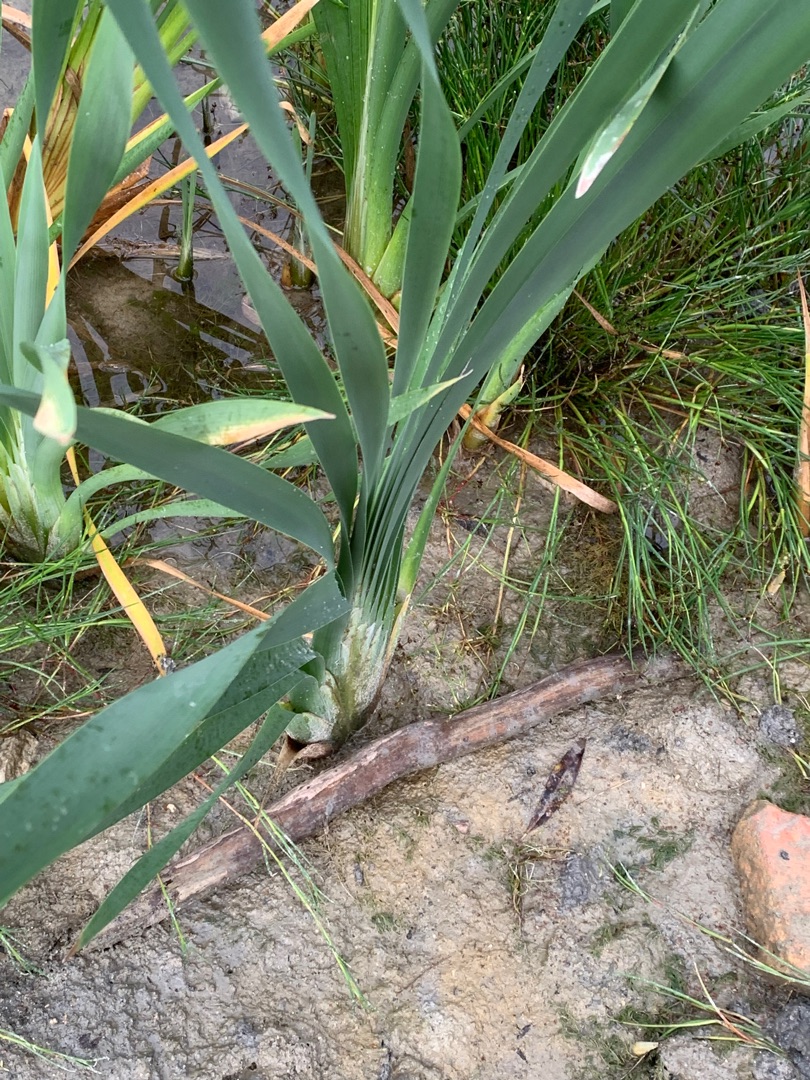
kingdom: Plantae
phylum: Tracheophyta
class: Liliopsida
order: Asparagales
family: Iridaceae
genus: Iris
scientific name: Iris pseudacorus
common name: Gul iris
